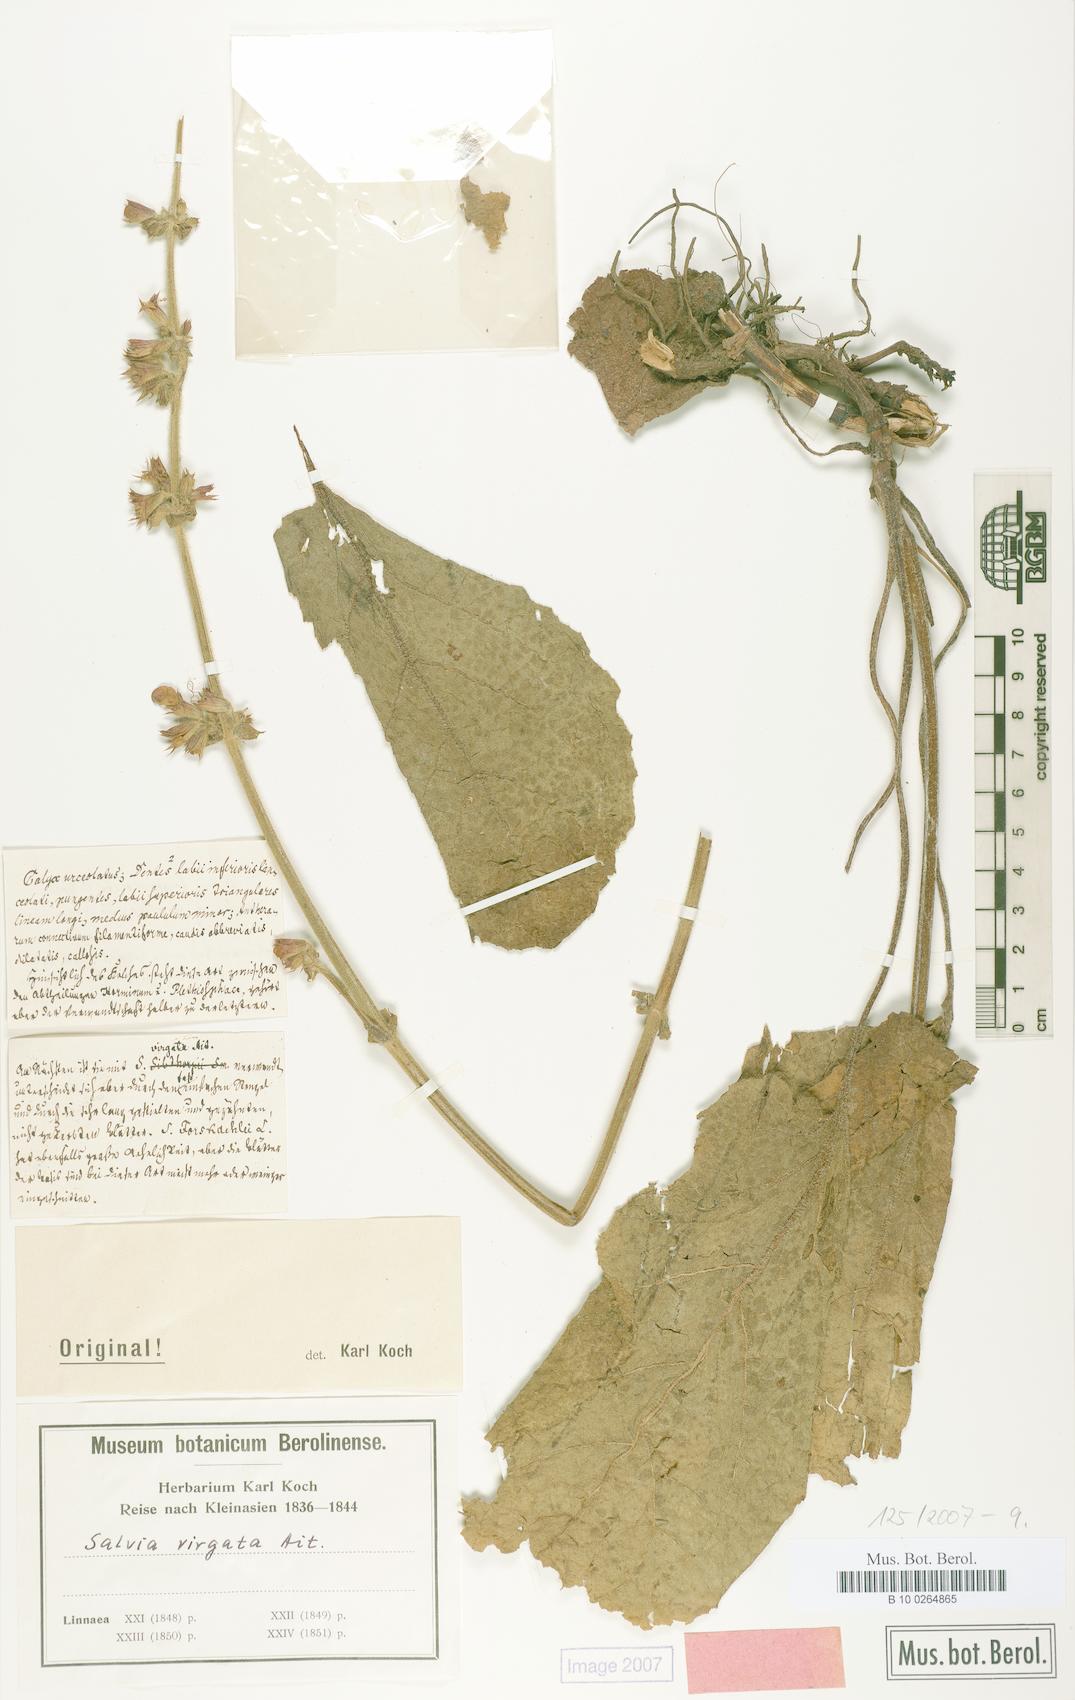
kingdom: Plantae
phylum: Tracheophyta
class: Magnoliopsida
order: Lamiales
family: Lamiaceae
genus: Salvia
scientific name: Salvia virgata
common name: Wand sage
